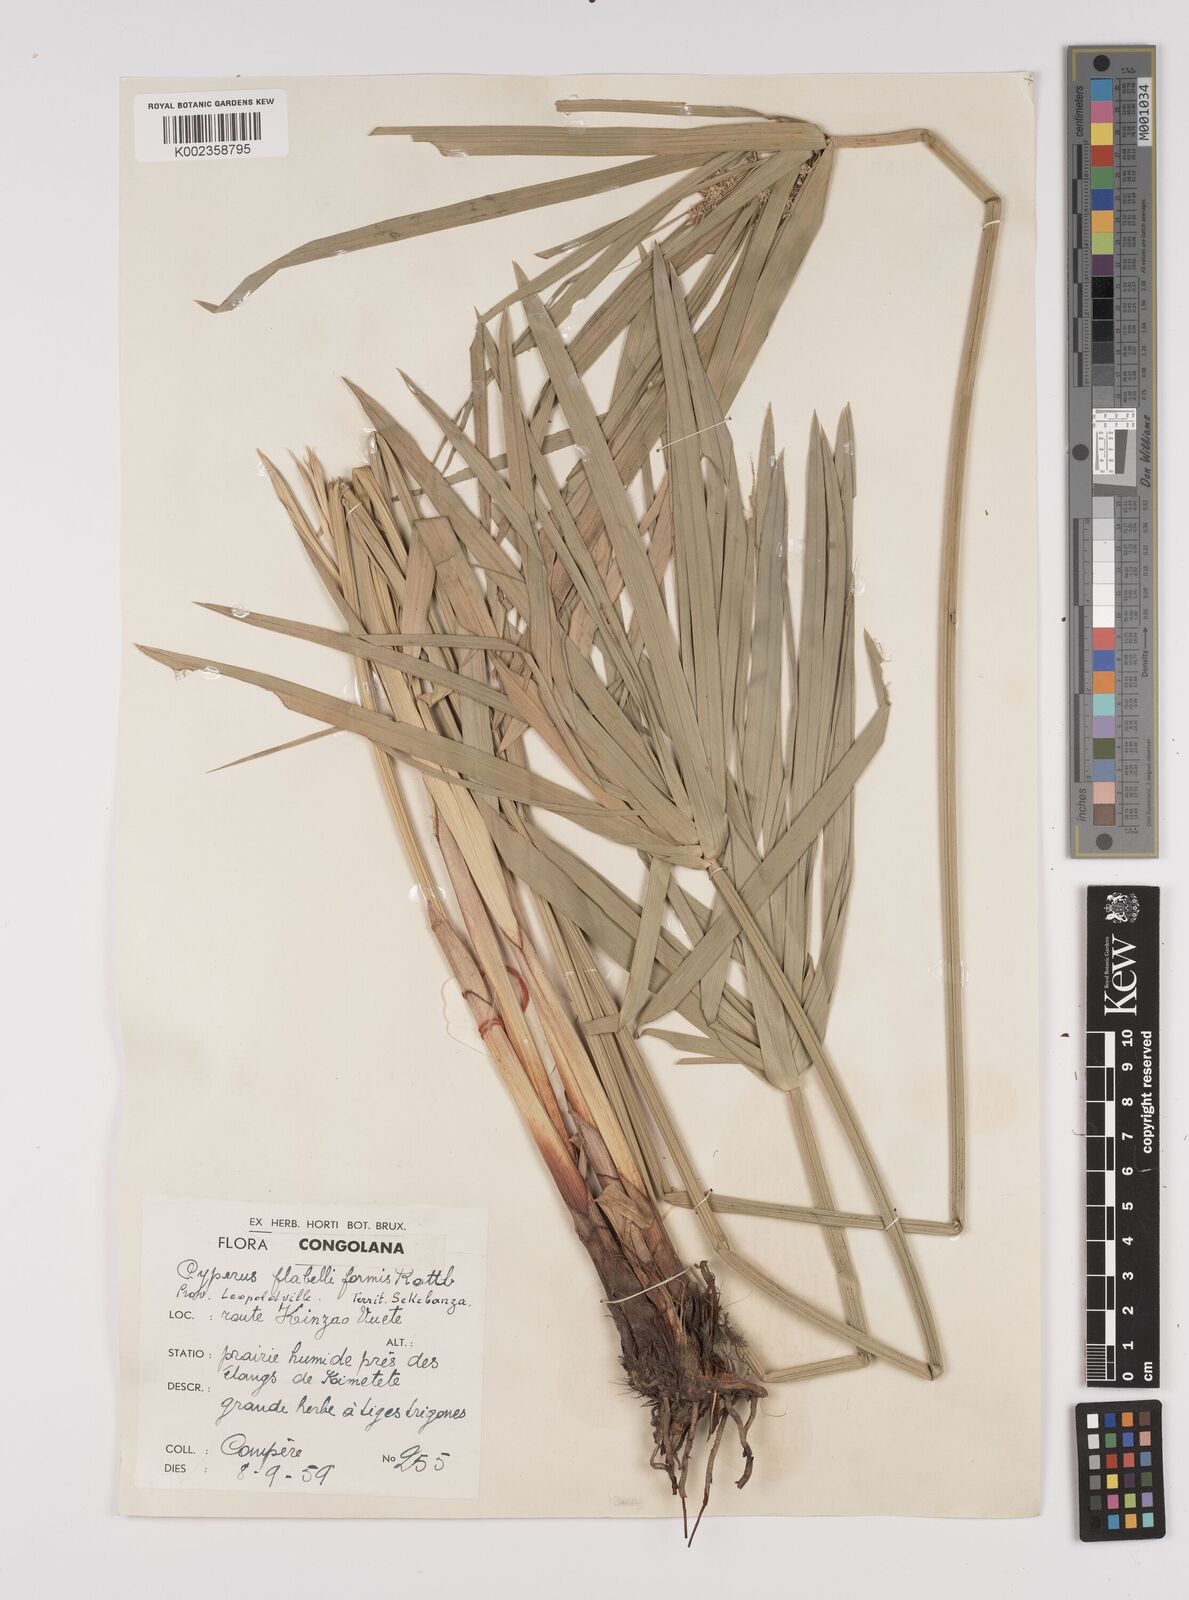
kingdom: Plantae
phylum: Tracheophyta
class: Liliopsida
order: Poales
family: Cyperaceae
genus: Cyperus
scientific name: Cyperus alternifolius
